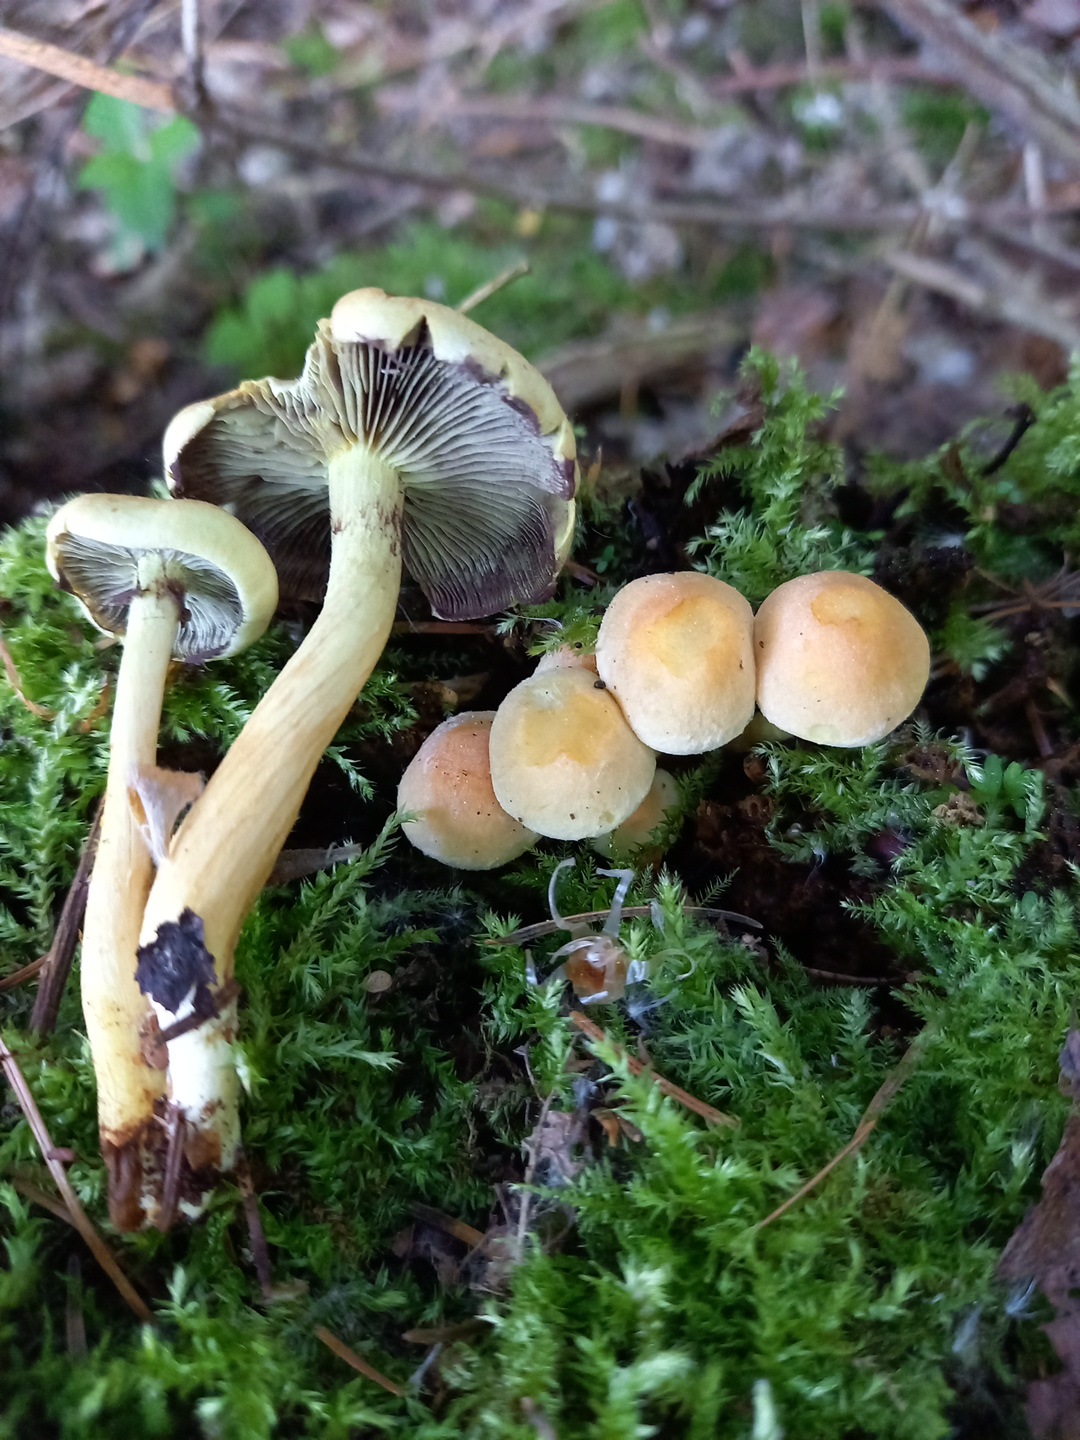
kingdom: Fungi
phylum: Basidiomycota
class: Agaricomycetes
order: Agaricales
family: Strophariaceae
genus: Hypholoma
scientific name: Hypholoma fasciculare
